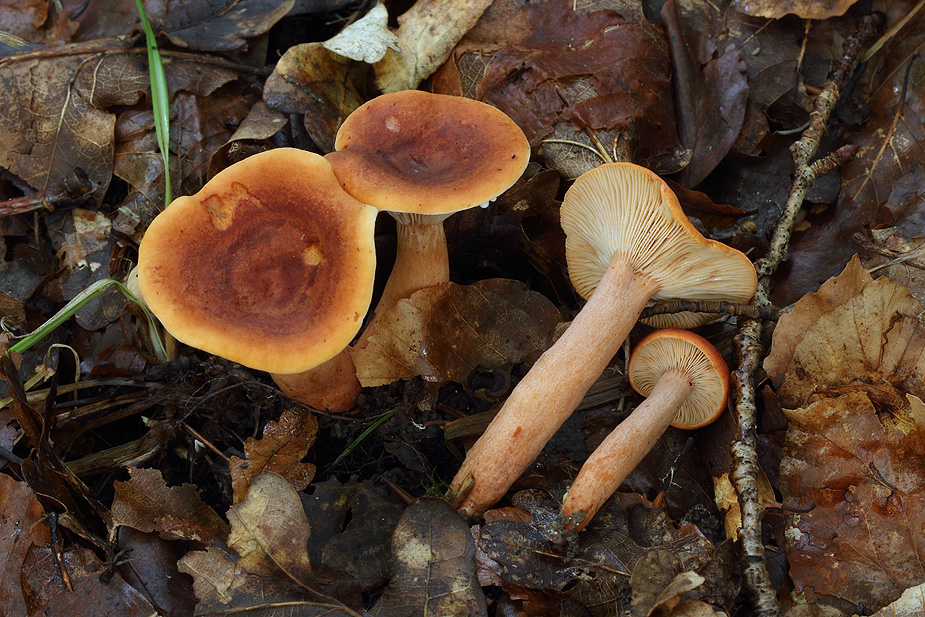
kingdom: Fungi
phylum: Basidiomycota
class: Agaricomycetes
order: Russulales
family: Russulaceae
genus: Lactarius
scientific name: Lactarius fulvissimus
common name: ræve-mælkehat
